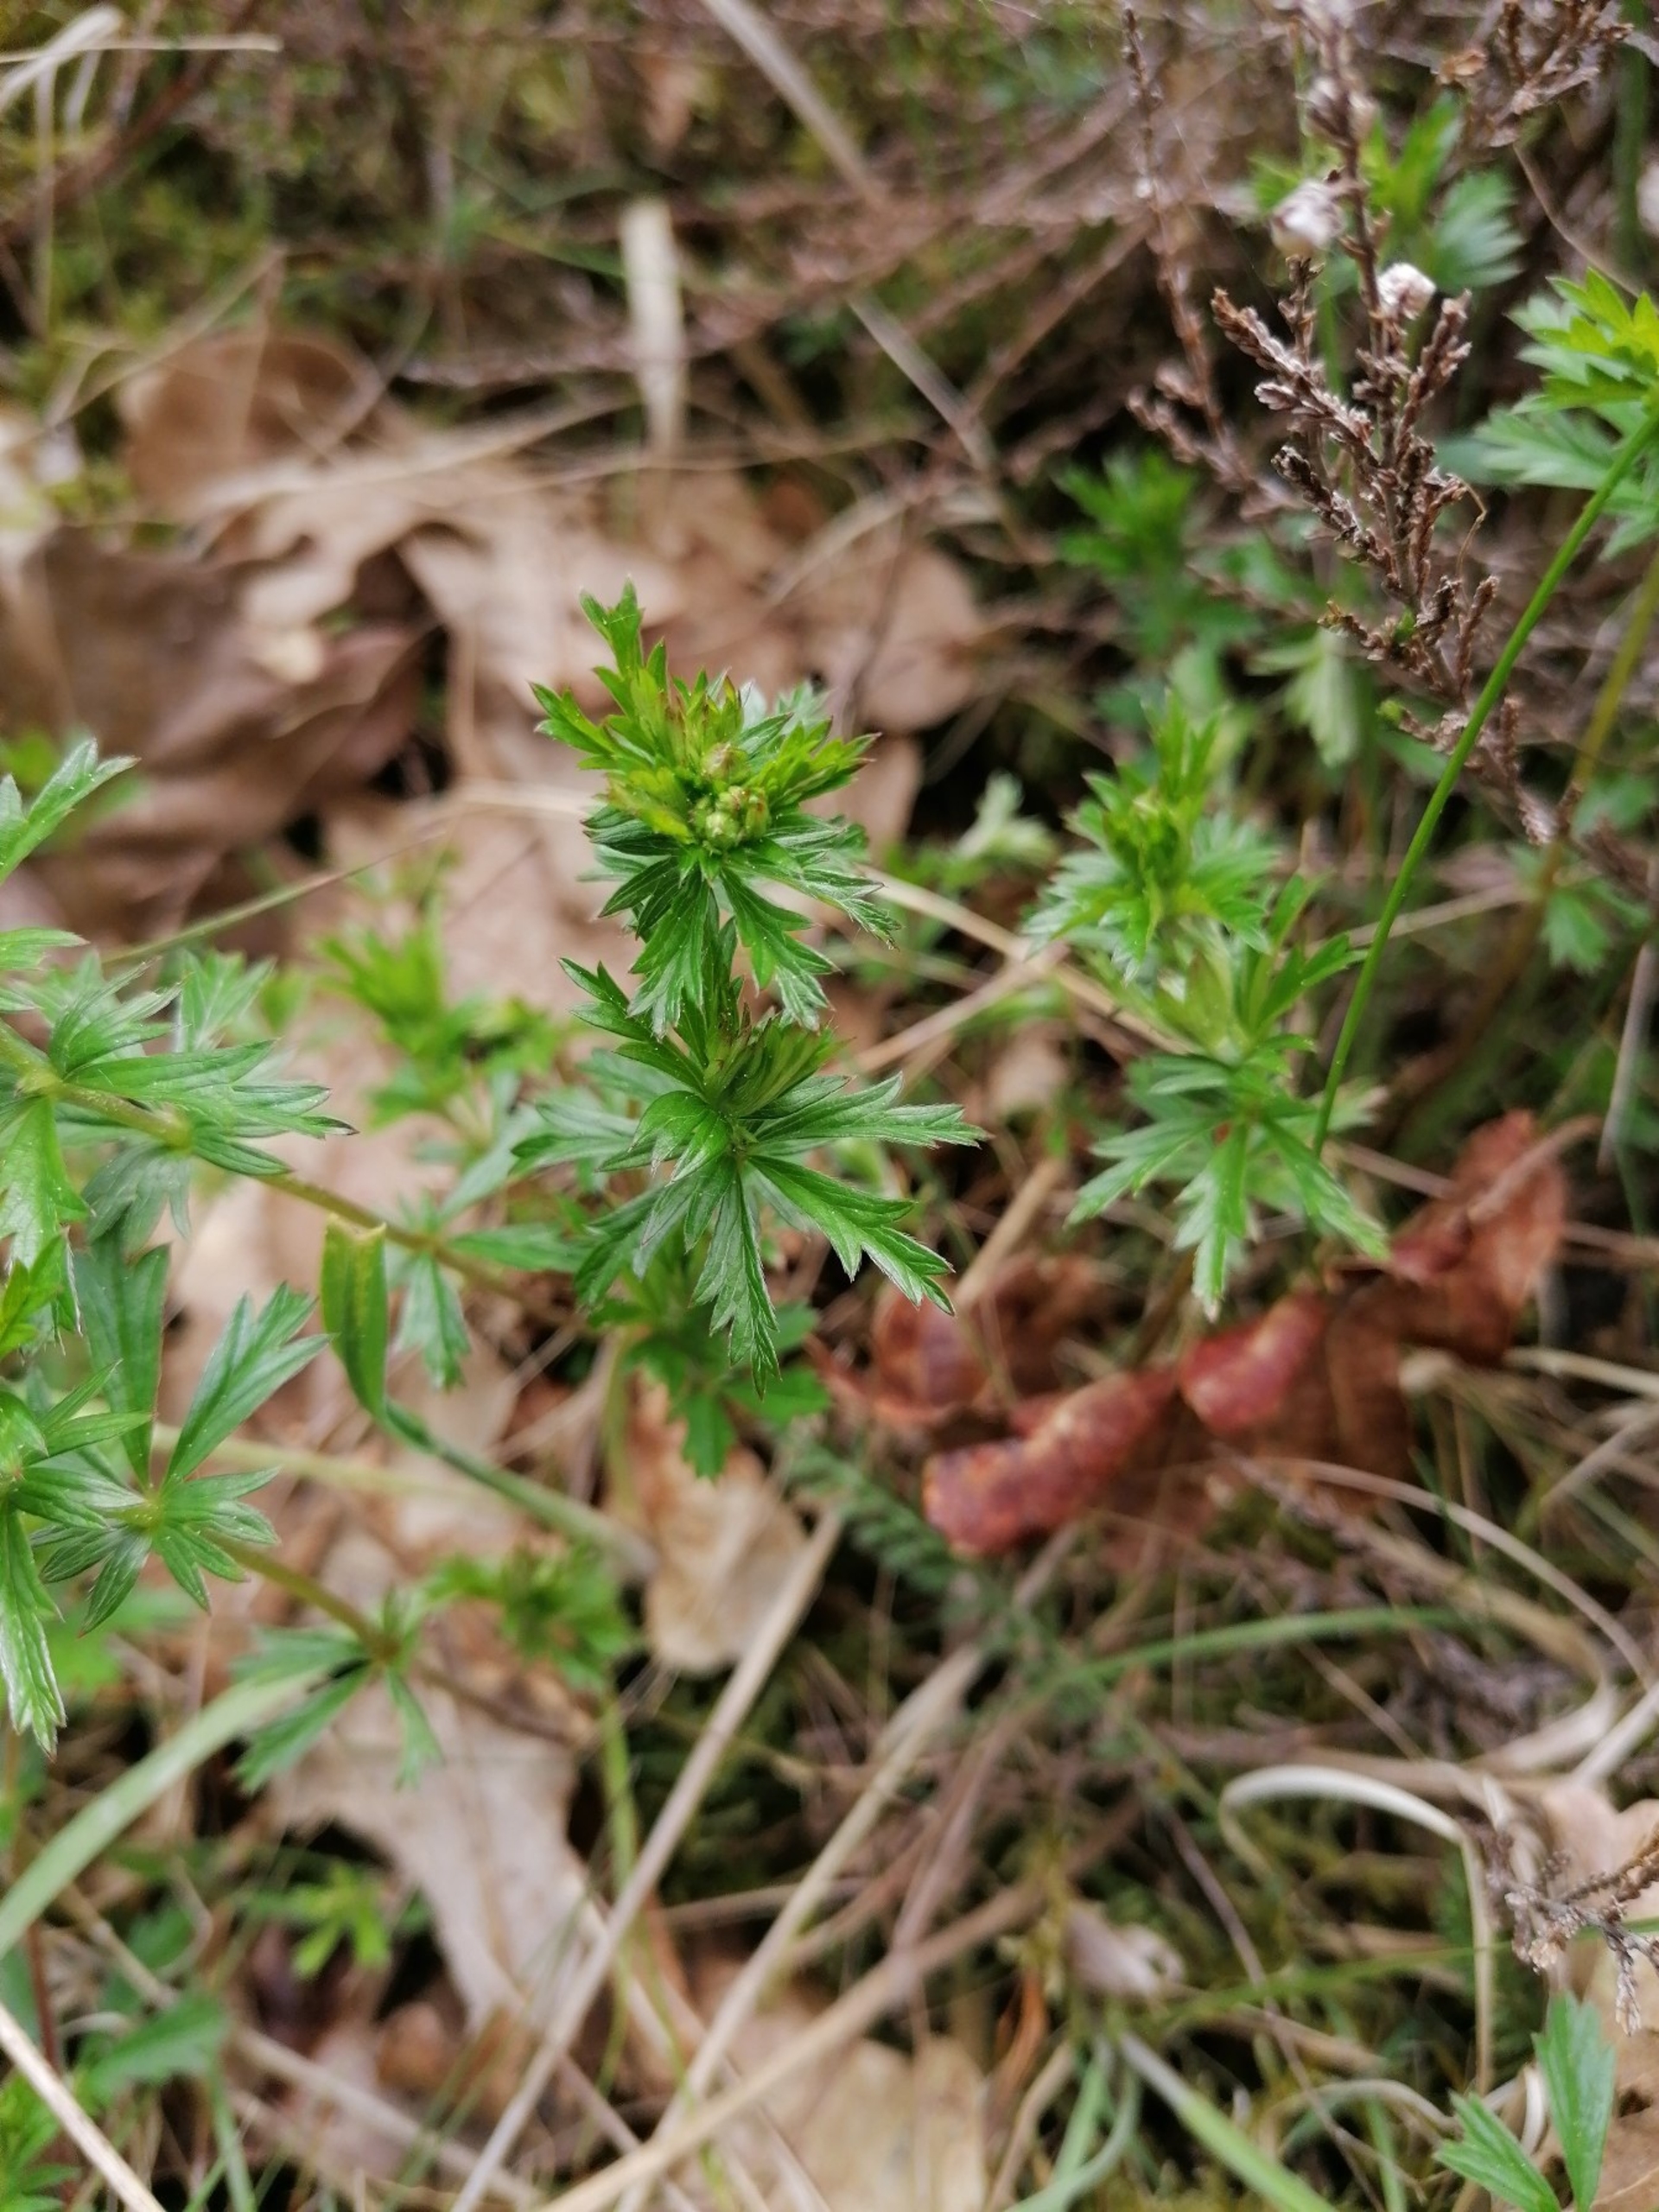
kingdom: Plantae
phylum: Tracheophyta
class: Magnoliopsida
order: Rosales
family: Rosaceae
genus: Potentilla
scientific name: Potentilla erecta
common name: Tormentil
